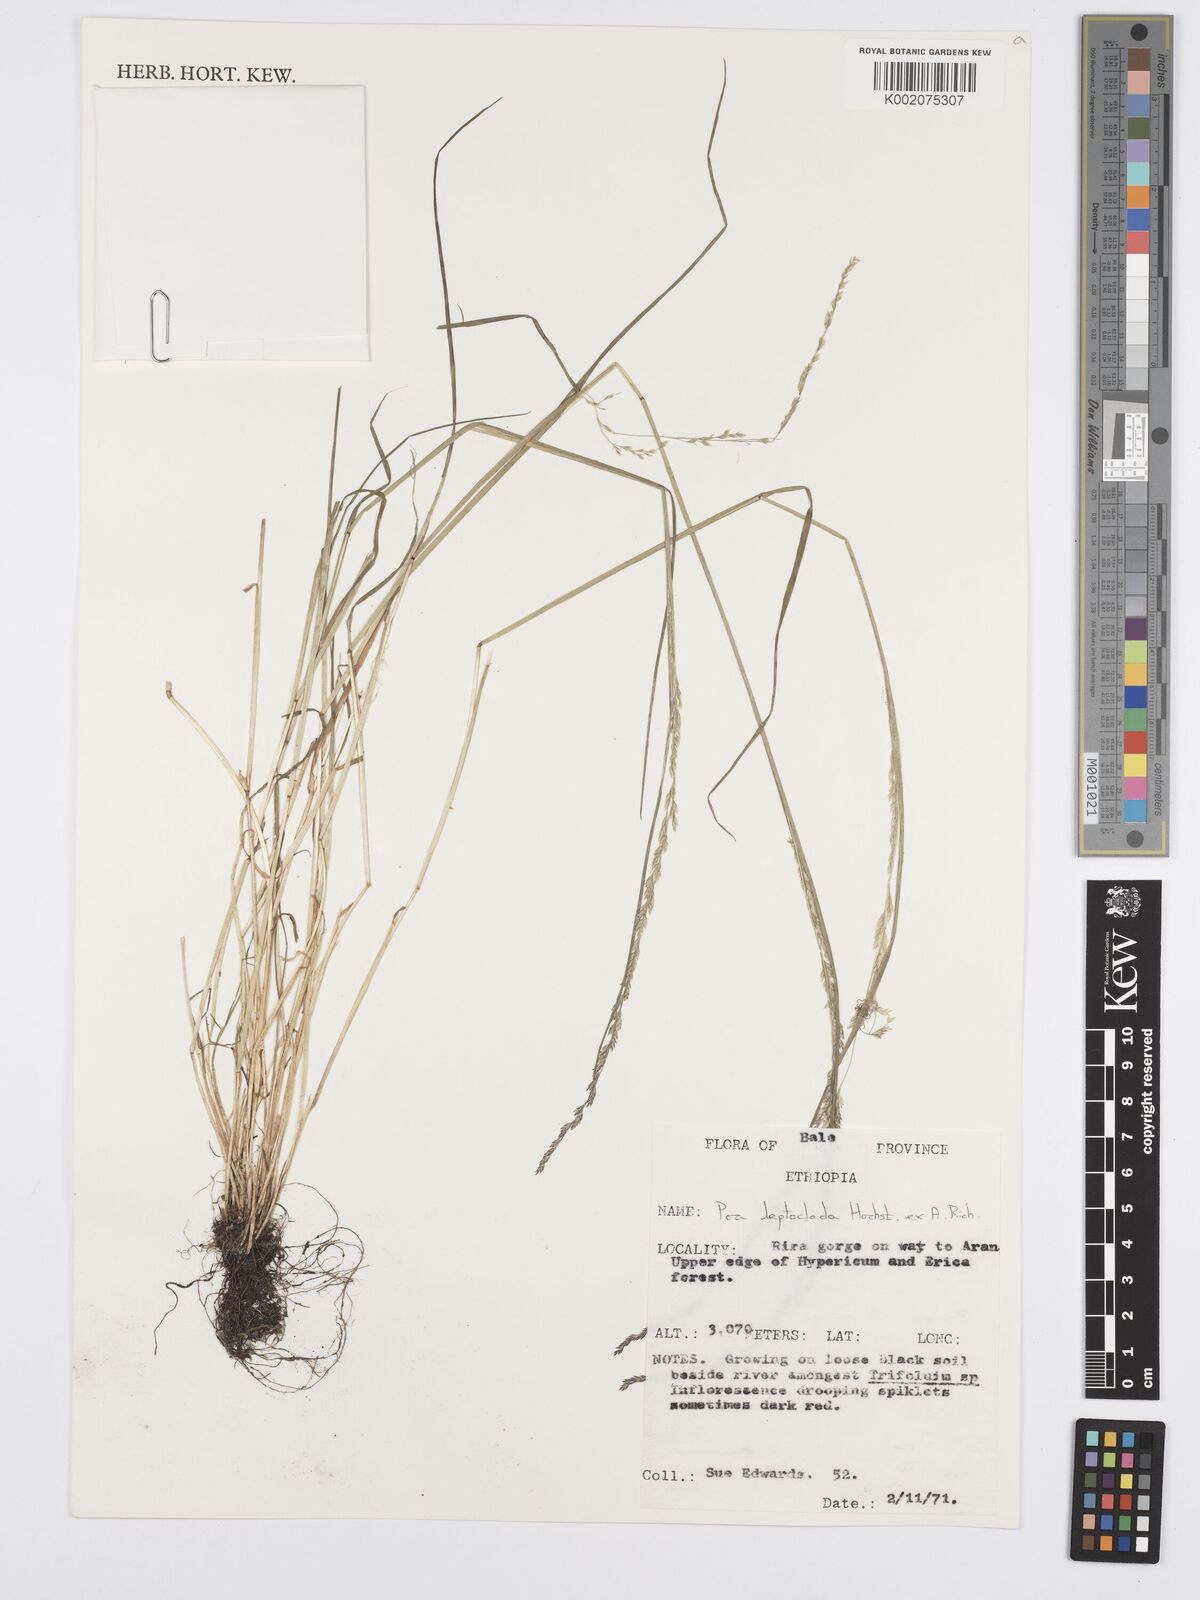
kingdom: Plantae
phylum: Tracheophyta
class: Liliopsida
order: Poales
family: Poaceae
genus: Poa
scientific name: Poa leptoclada
